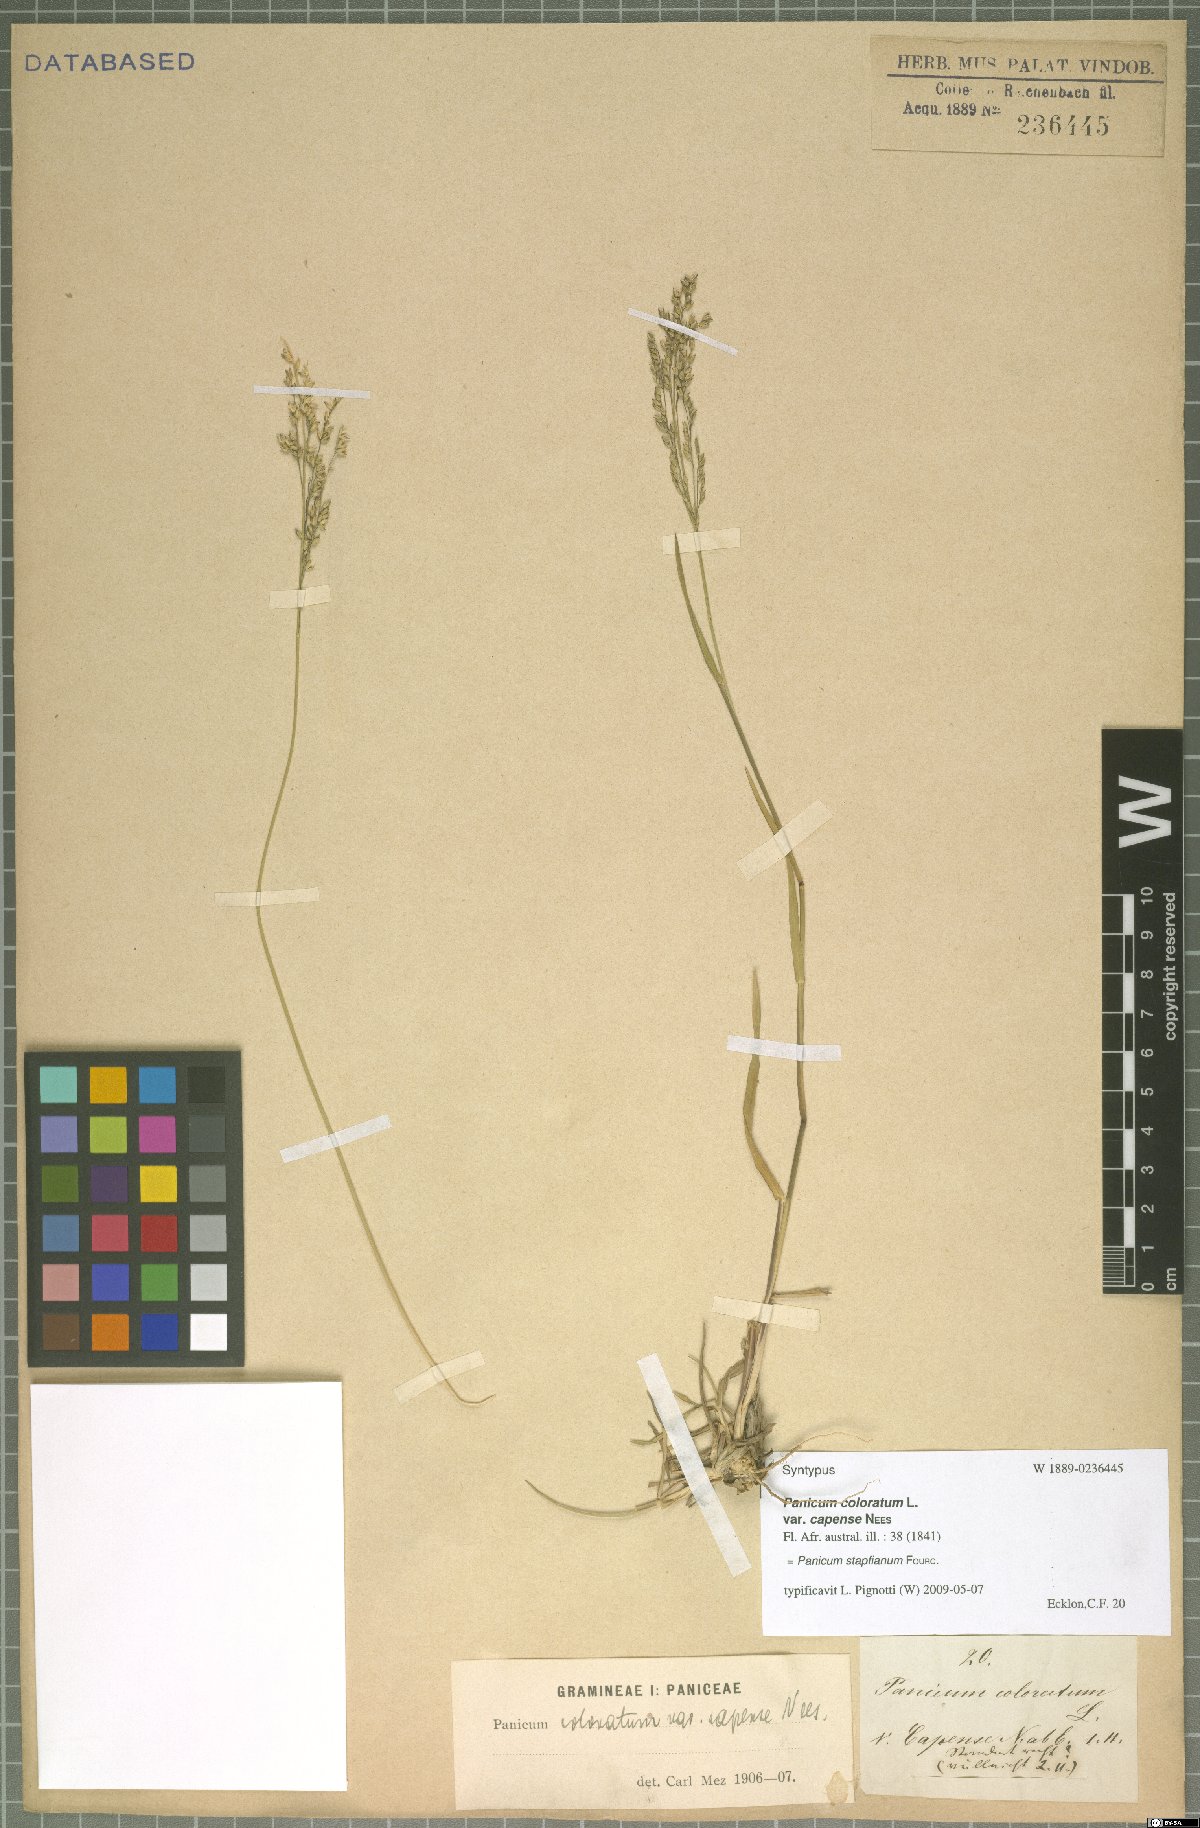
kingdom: Plantae
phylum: Tracheophyta
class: Liliopsida
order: Poales
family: Poaceae
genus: Panicum
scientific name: Panicum stapfianum
